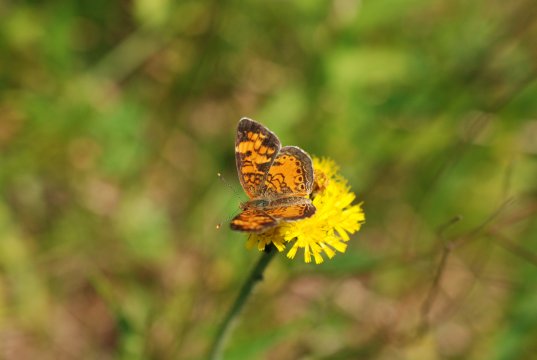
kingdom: Animalia
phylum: Arthropoda
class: Insecta
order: Lepidoptera
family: Nymphalidae
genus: Phyciodes
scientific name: Phyciodes tharos
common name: Northern Crescent
